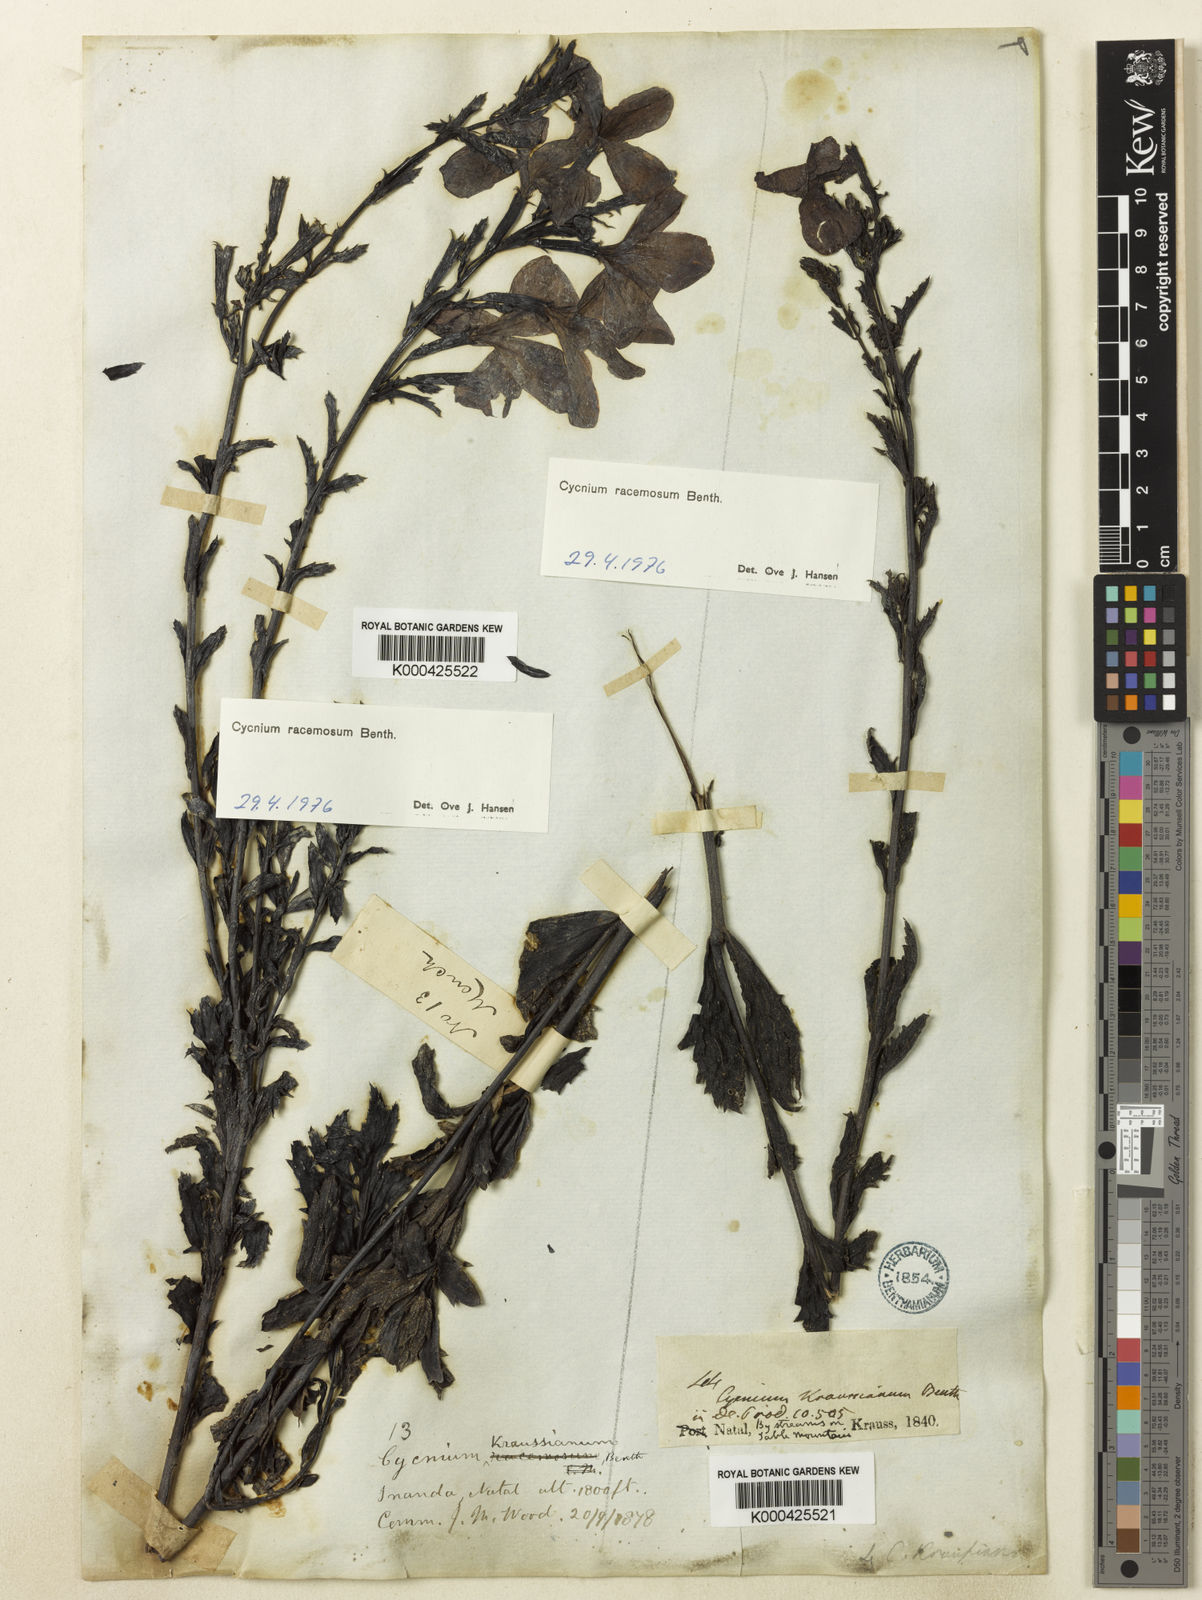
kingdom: Plantae
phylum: Tracheophyta
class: Magnoliopsida
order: Lamiales
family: Orobanchaceae
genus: Cycnium
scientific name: Cycnium racemosum
